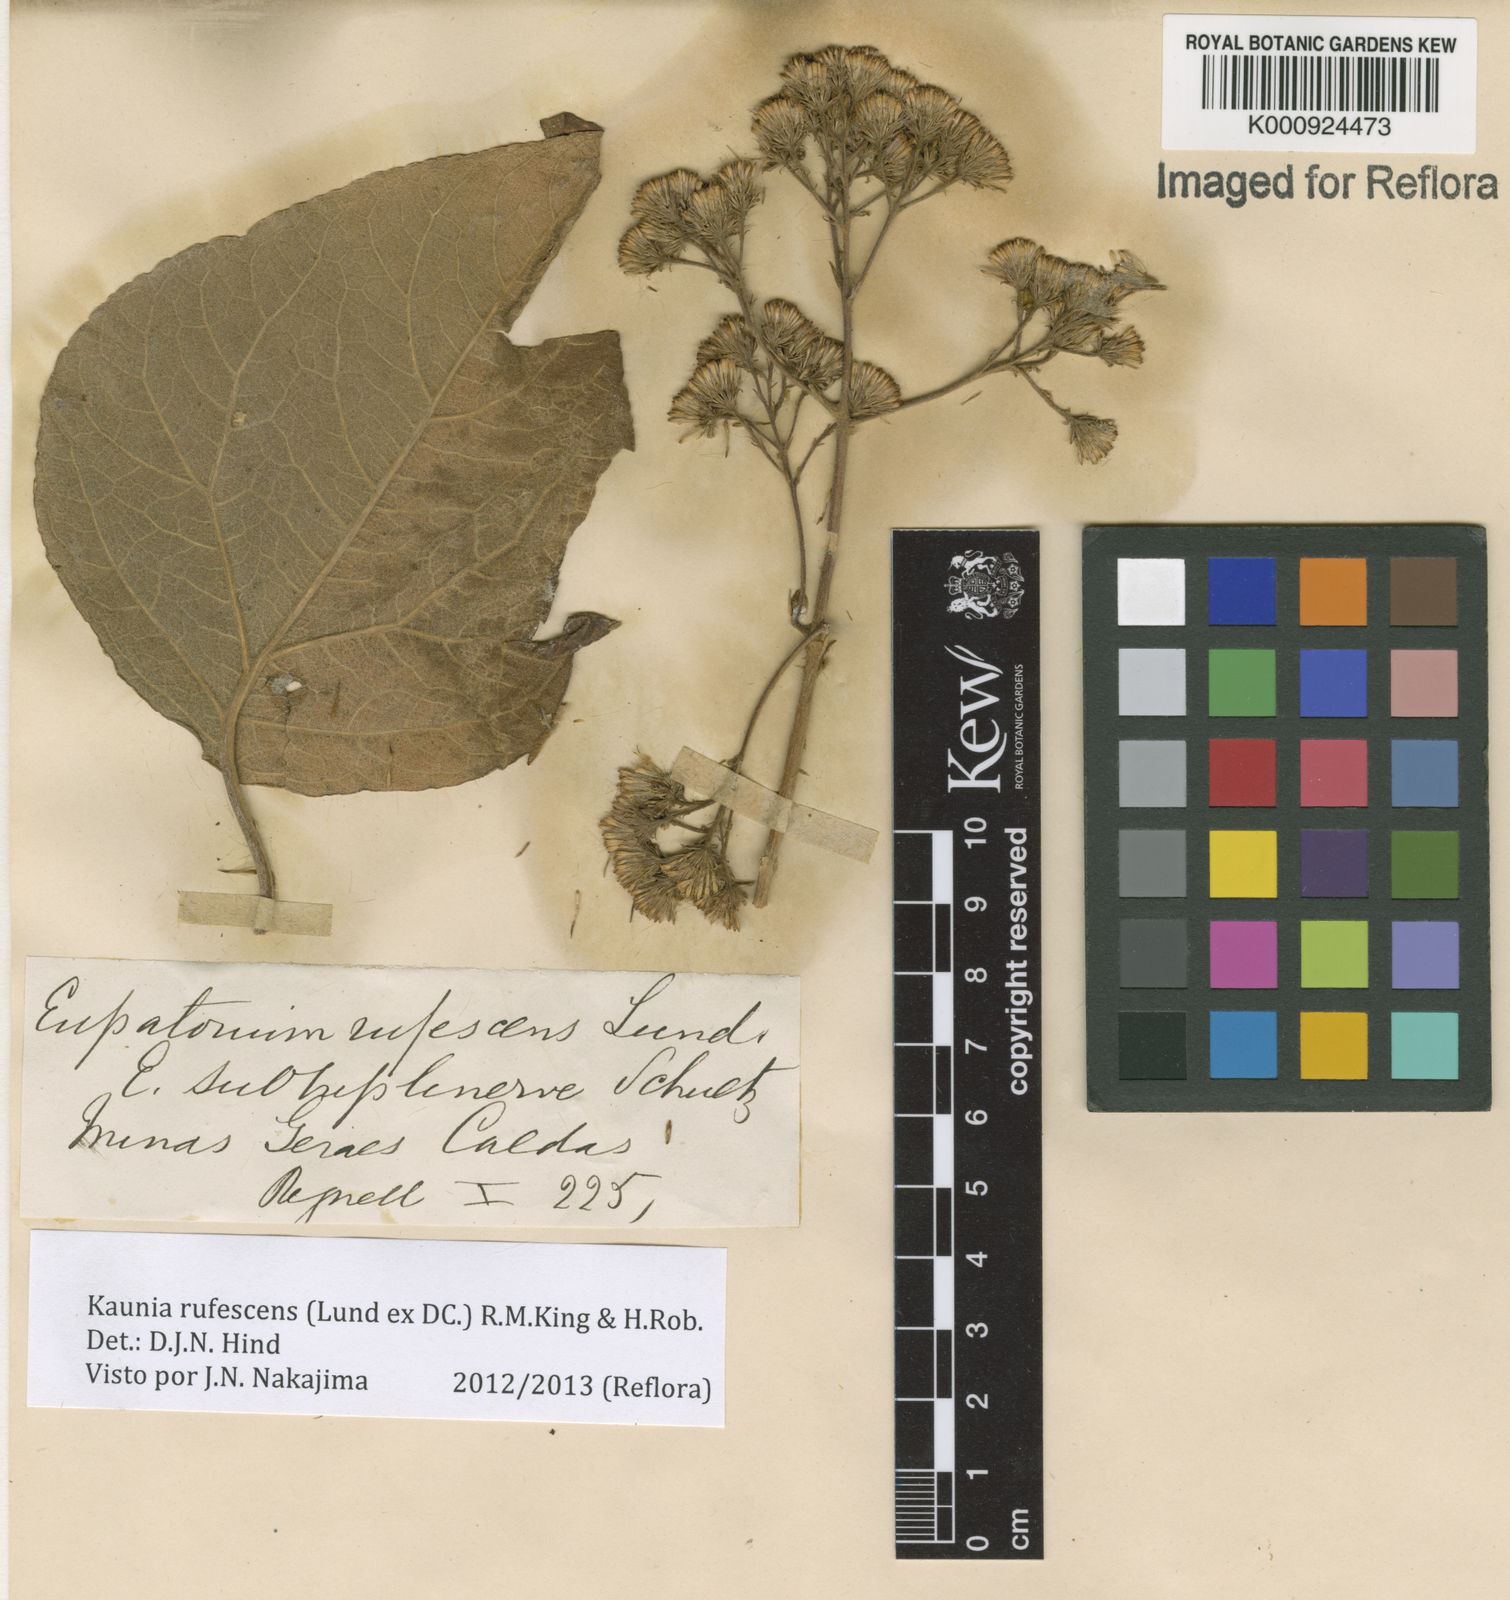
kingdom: Plantae
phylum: Tracheophyta
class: Magnoliopsida
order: Asterales
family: Asteraceae
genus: Kaunia
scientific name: Kaunia rufescens
